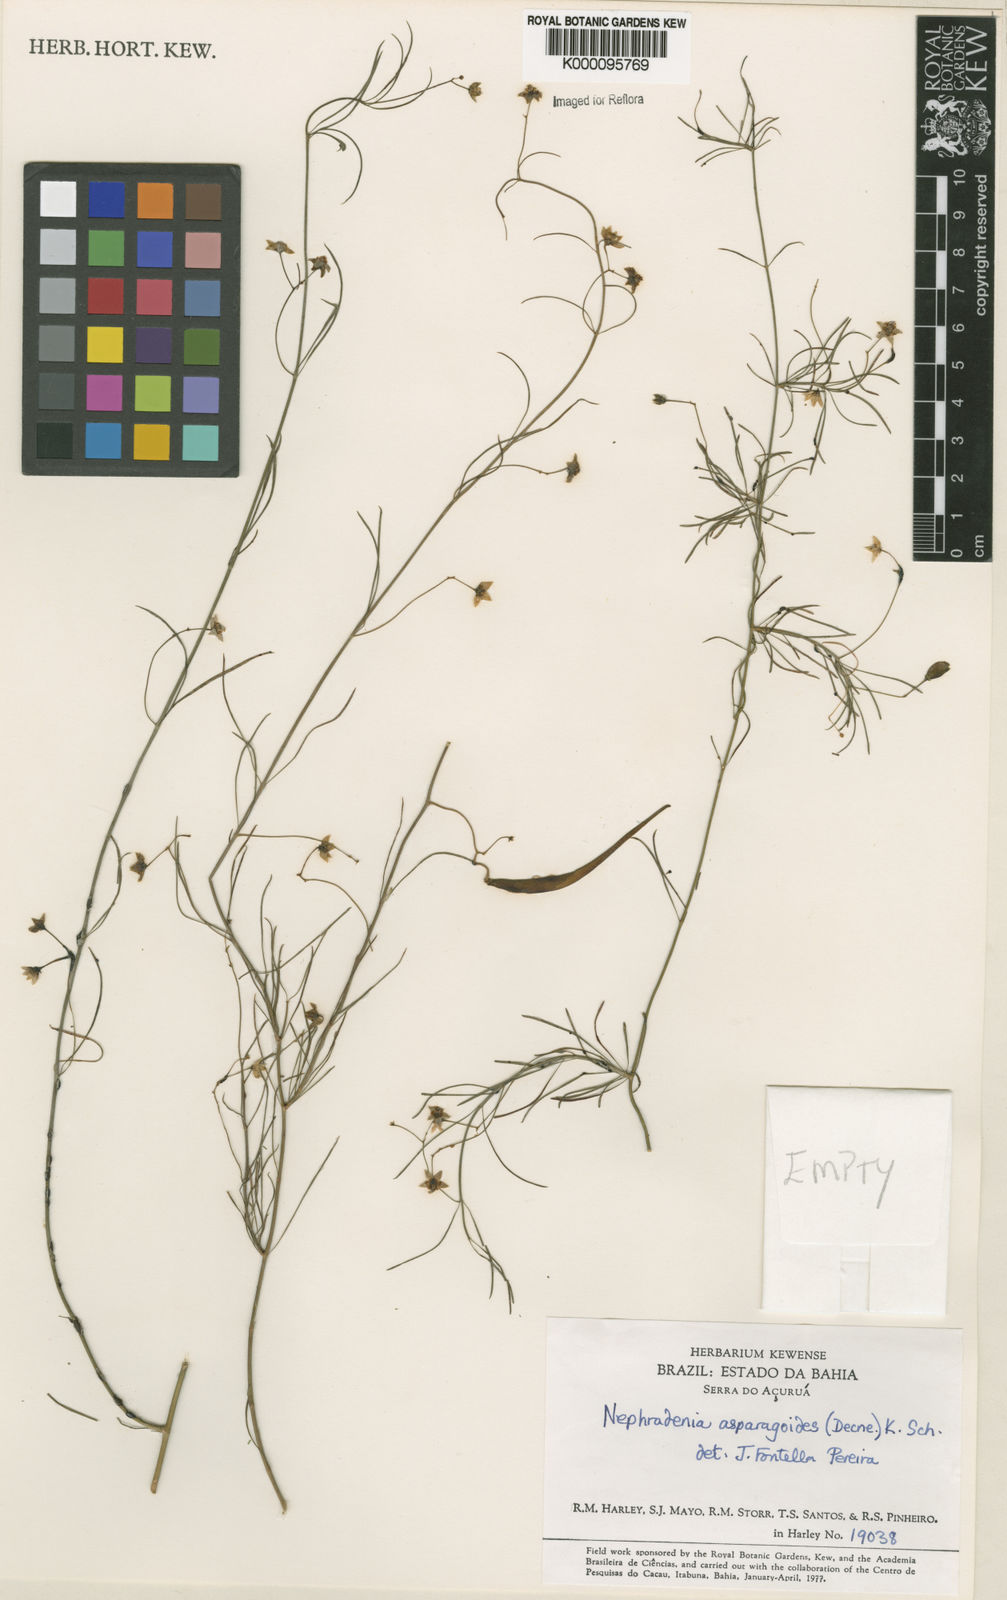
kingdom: Plantae
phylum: Tracheophyta
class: Magnoliopsida
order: Gentianales
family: Apocynaceae
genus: Nephradenia
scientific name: Nephradenia asparagoides
